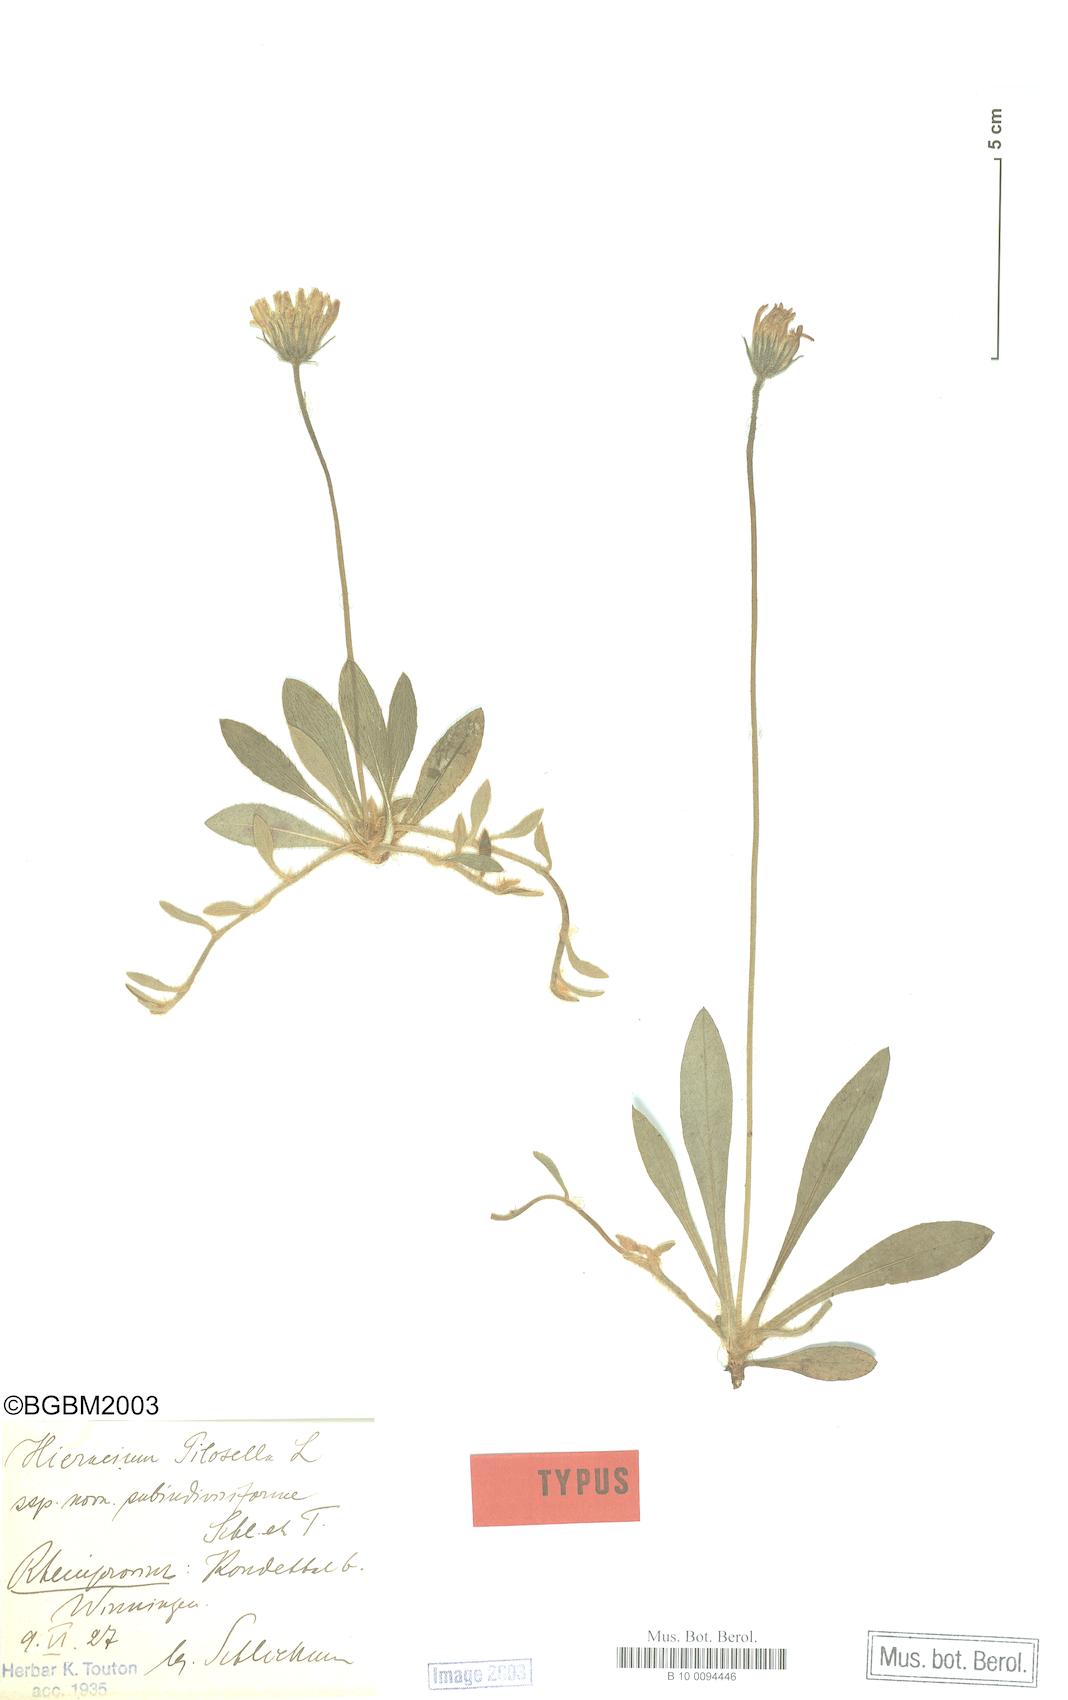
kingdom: Plantae
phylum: Tracheophyta
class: Magnoliopsida
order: Asterales
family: Asteraceae
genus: Pilosella
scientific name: Pilosella officinarum
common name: Mouse-ear hawkweed
